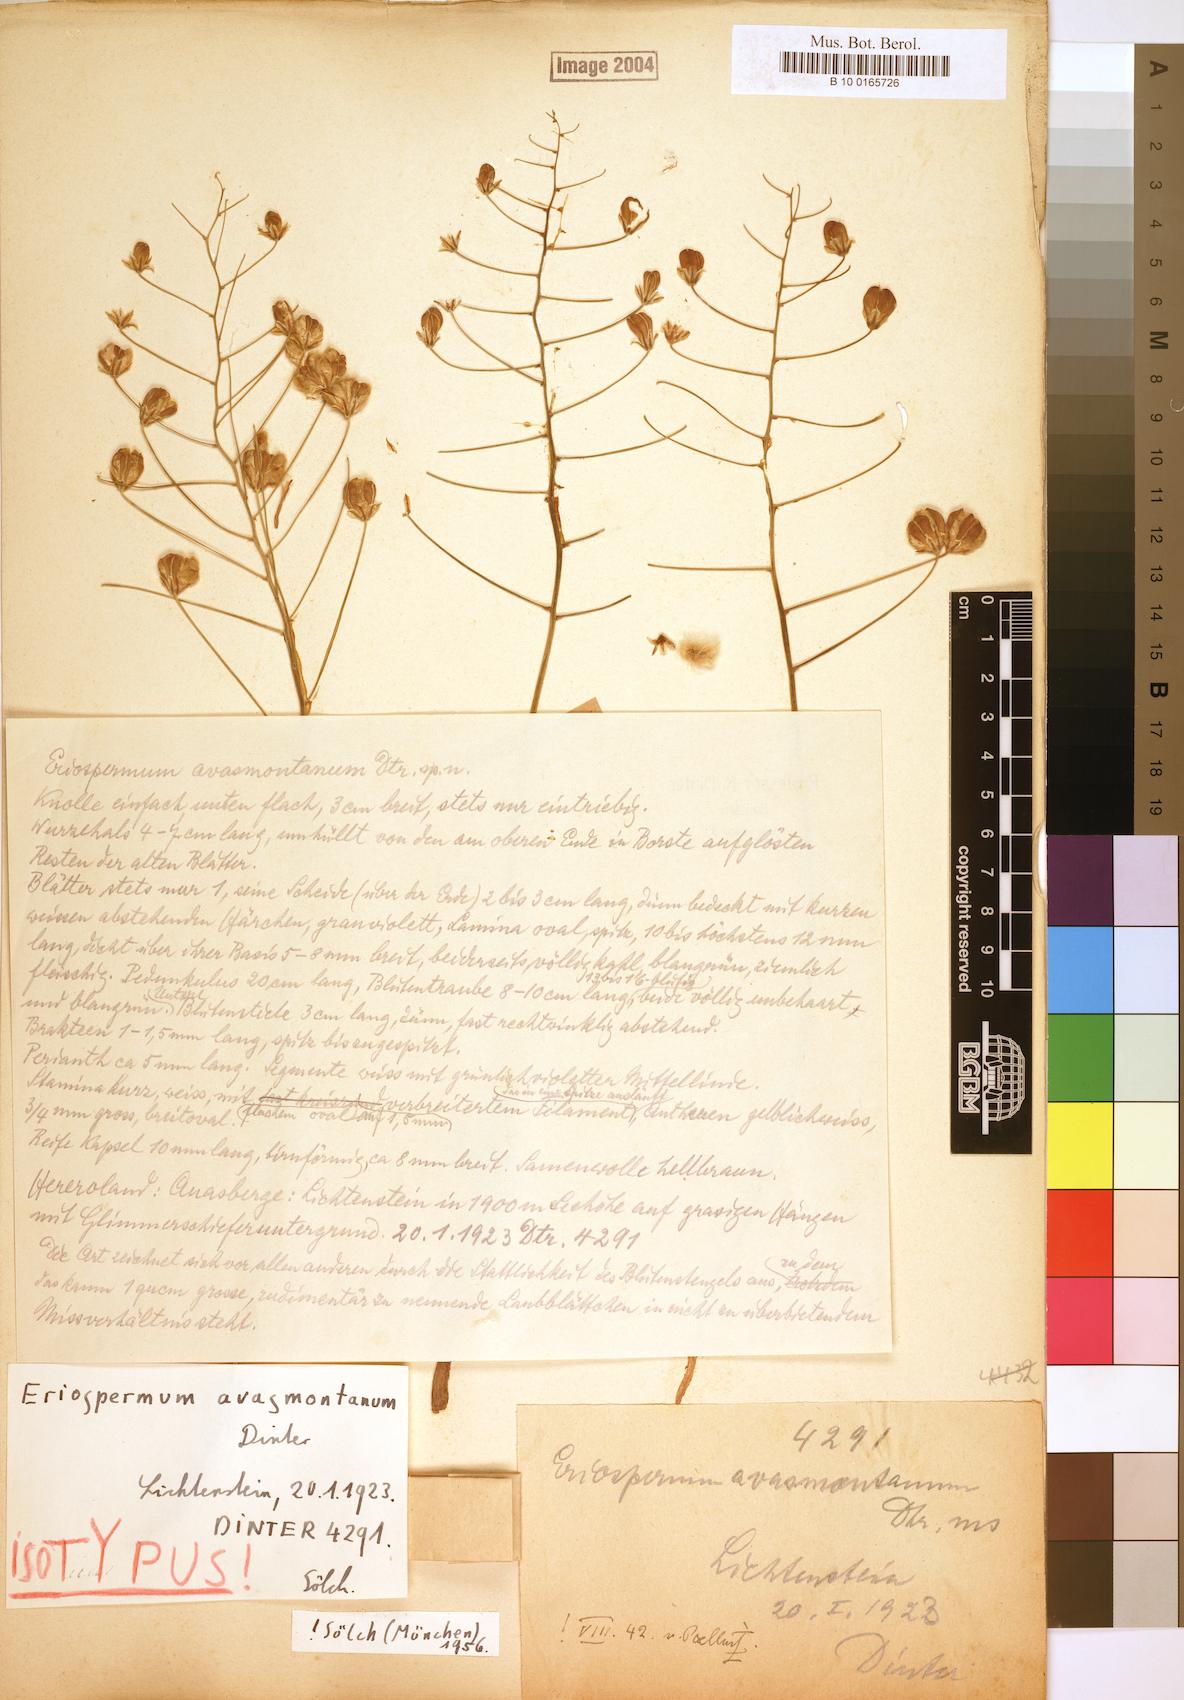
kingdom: Plantae
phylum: Tracheophyta
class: Liliopsida
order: Asparagales
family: Asparagaceae
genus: Eriospermum
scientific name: Eriospermum schinzii
